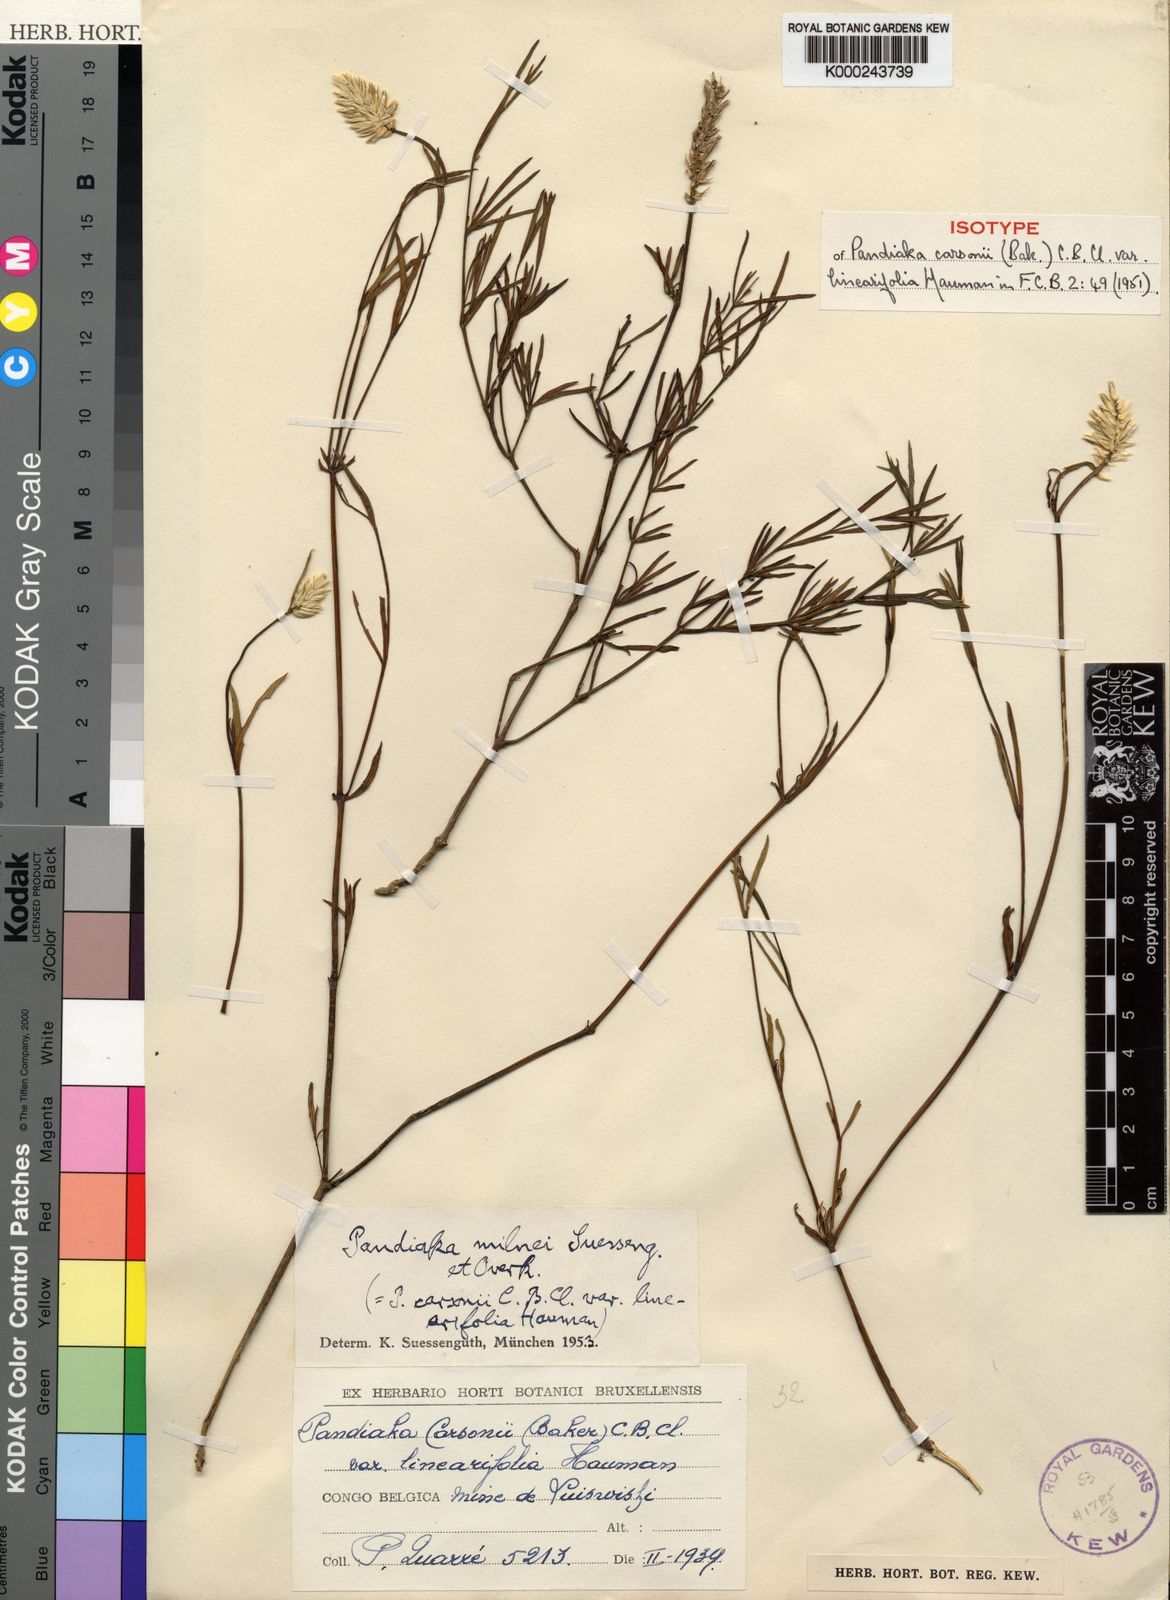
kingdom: Plantae
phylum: Tracheophyta
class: Magnoliopsida
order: Caryophyllales
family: Amaranthaceae
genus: Pandiaka
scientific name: Pandiaka welwitschii
